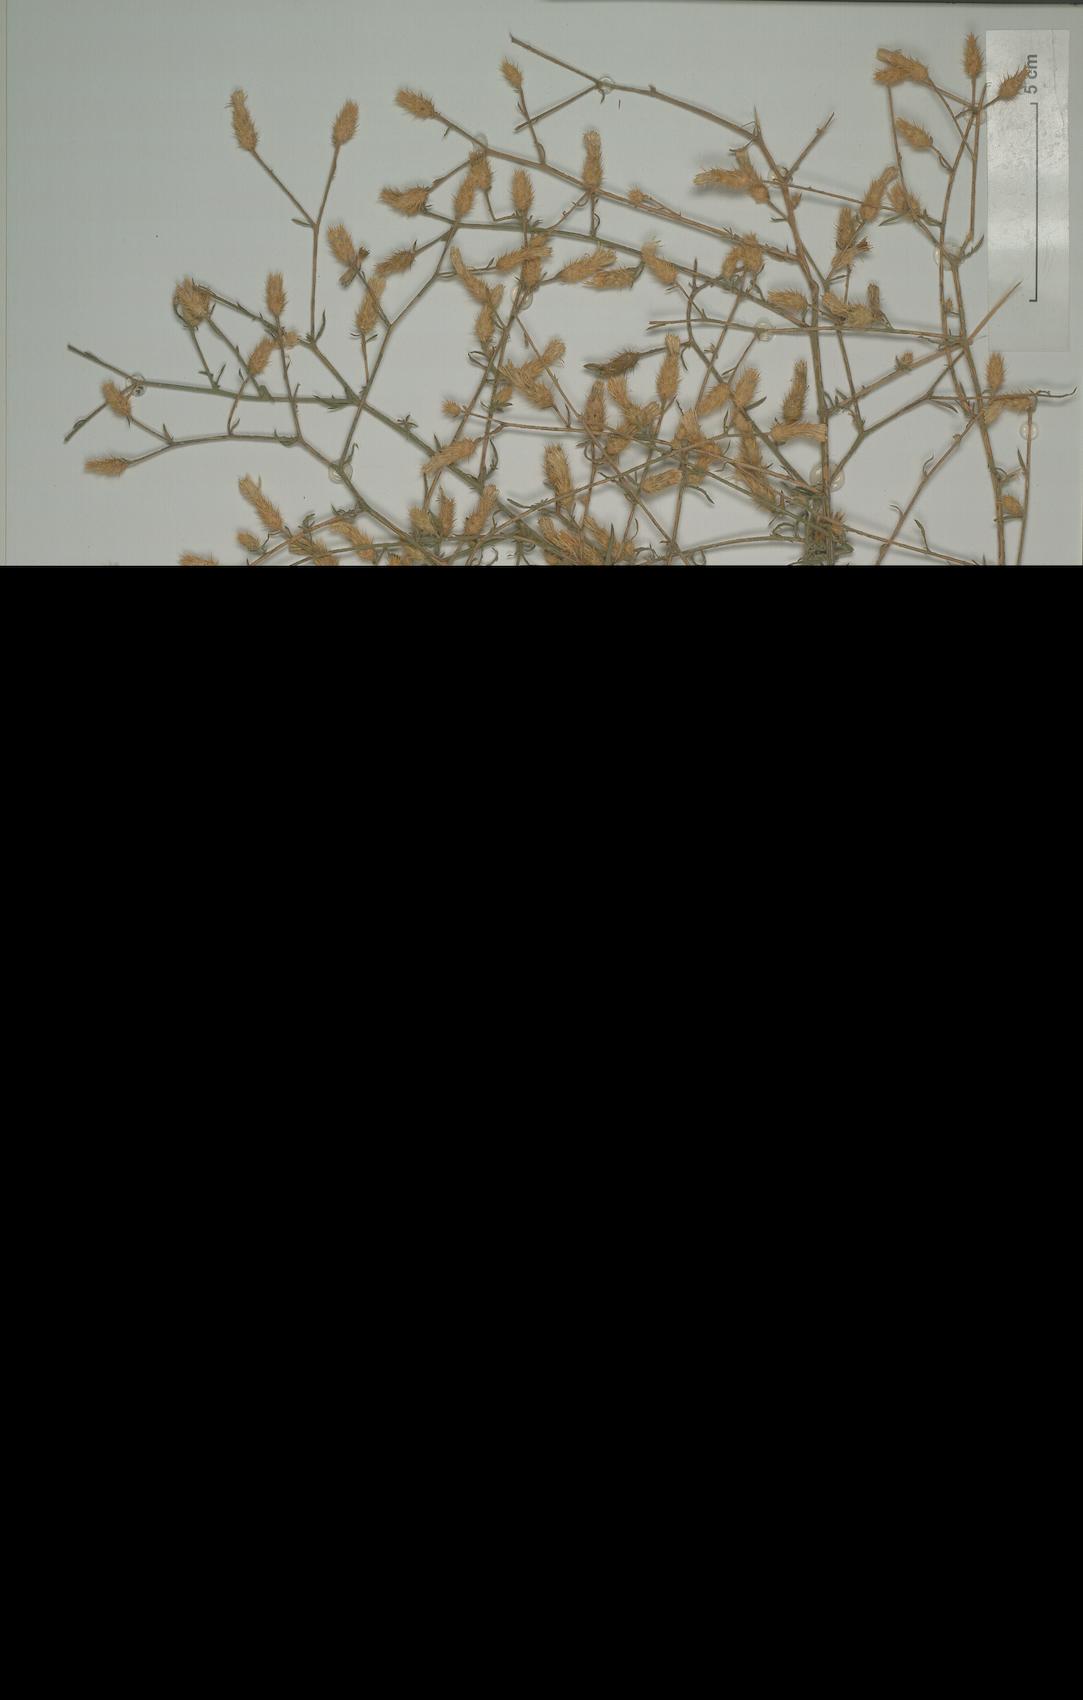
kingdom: Plantae
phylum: Tracheophyta
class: Magnoliopsida
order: Asterales
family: Asteraceae
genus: Centaurea
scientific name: Centaurea tymphaea
